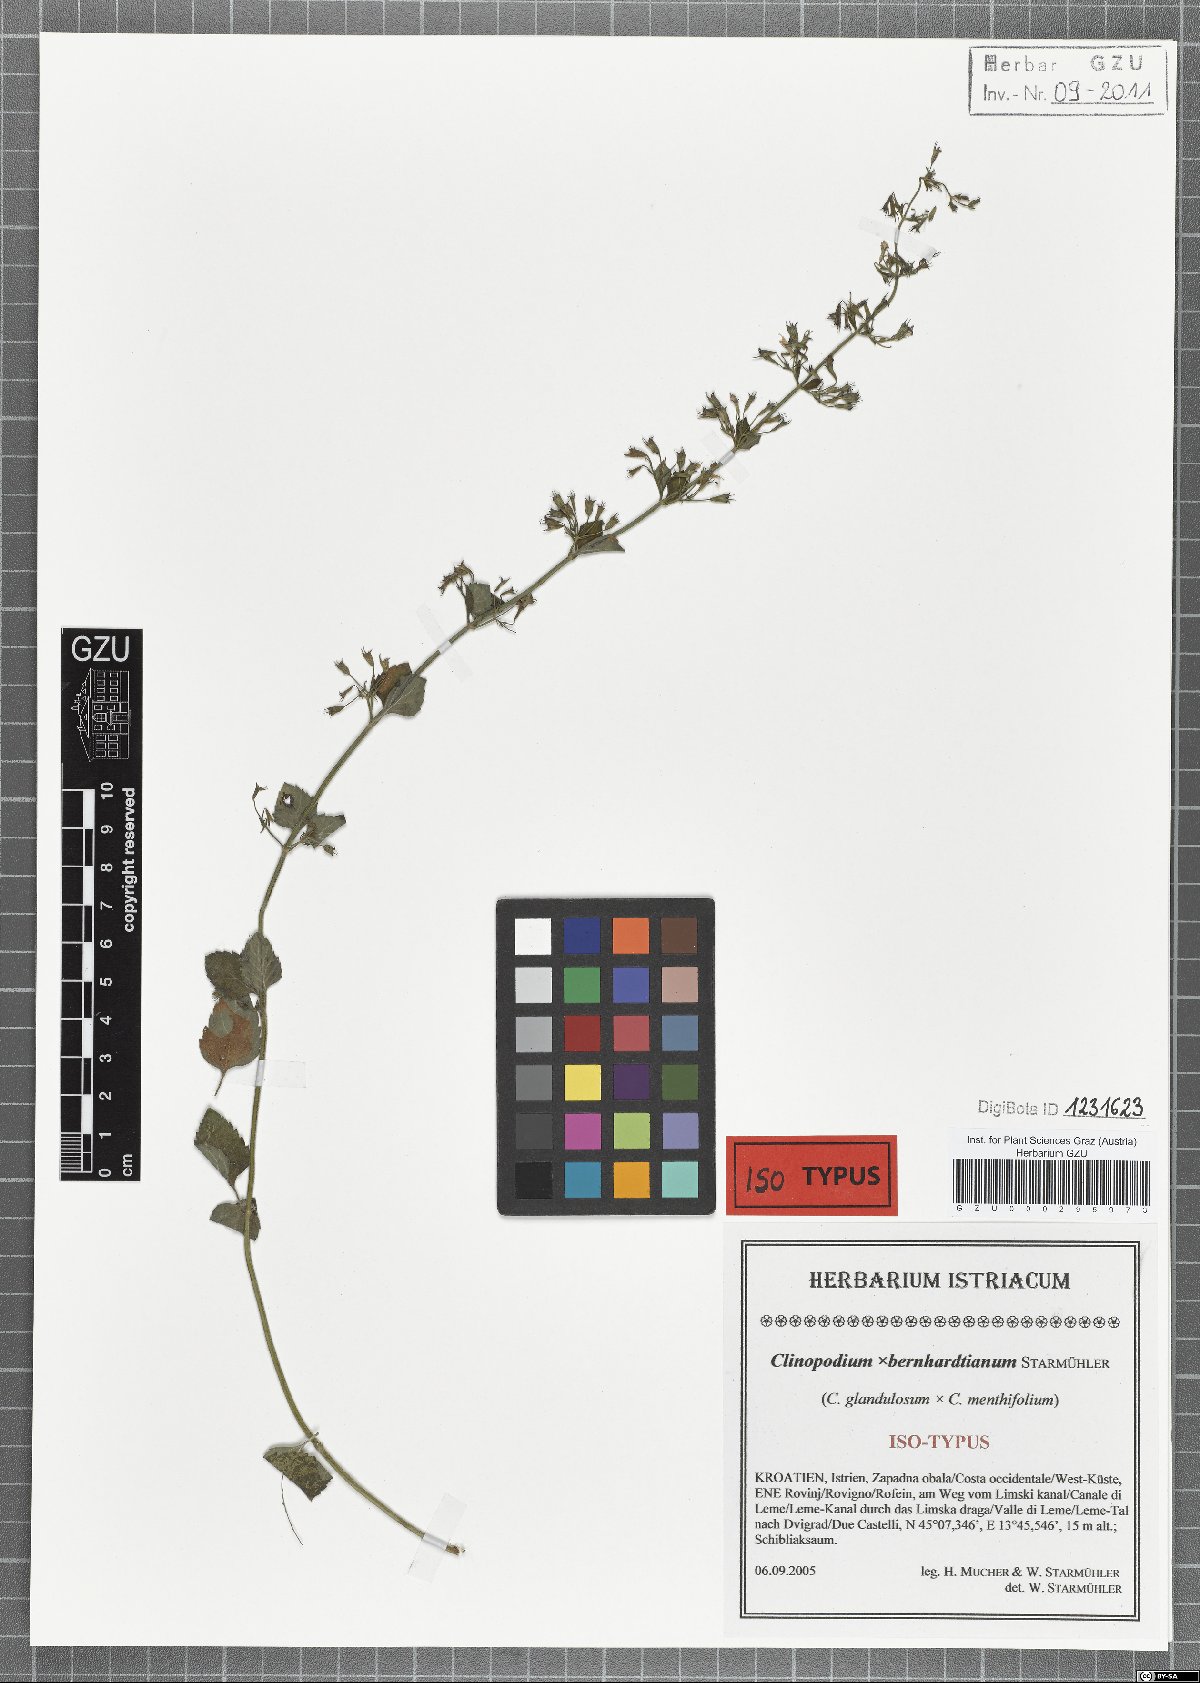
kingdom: Plantae
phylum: Tracheophyta
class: Magnoliopsida
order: Lamiales
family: Lamiaceae
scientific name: Lamiaceae
